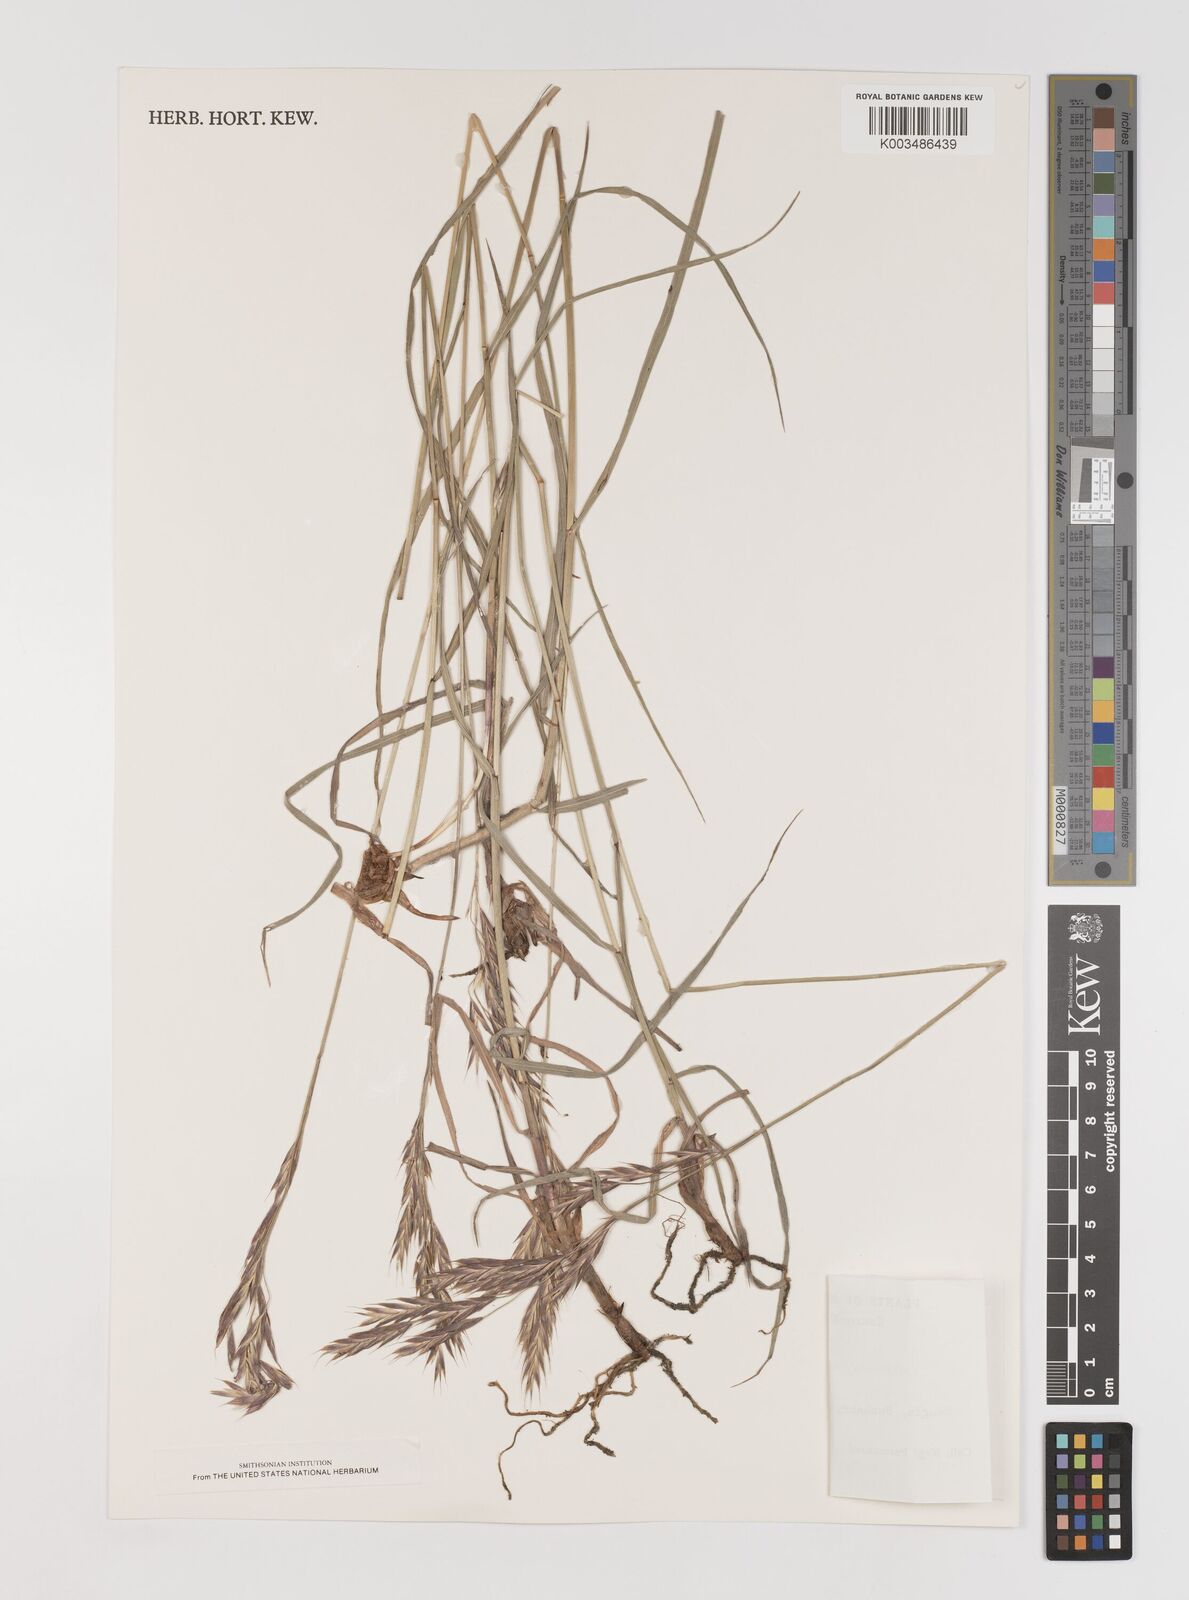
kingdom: Plantae
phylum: Tracheophyta
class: Liliopsida
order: Poales
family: Poaceae
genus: Bromus
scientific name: Bromus confinis
